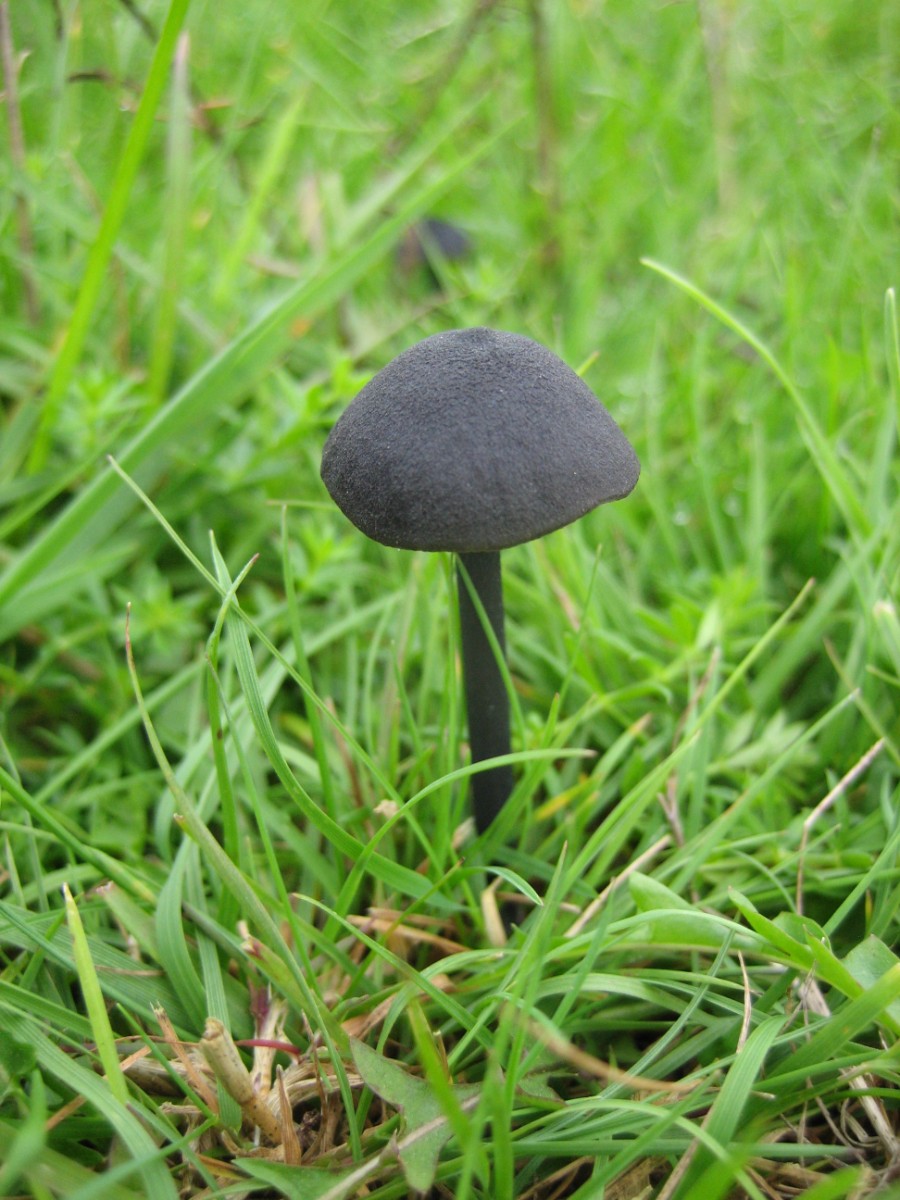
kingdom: Fungi
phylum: Basidiomycota
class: Agaricomycetes
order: Agaricales
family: Entolomataceae
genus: Entoloma
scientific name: Entoloma chalybeum
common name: blåbladet rødblad
